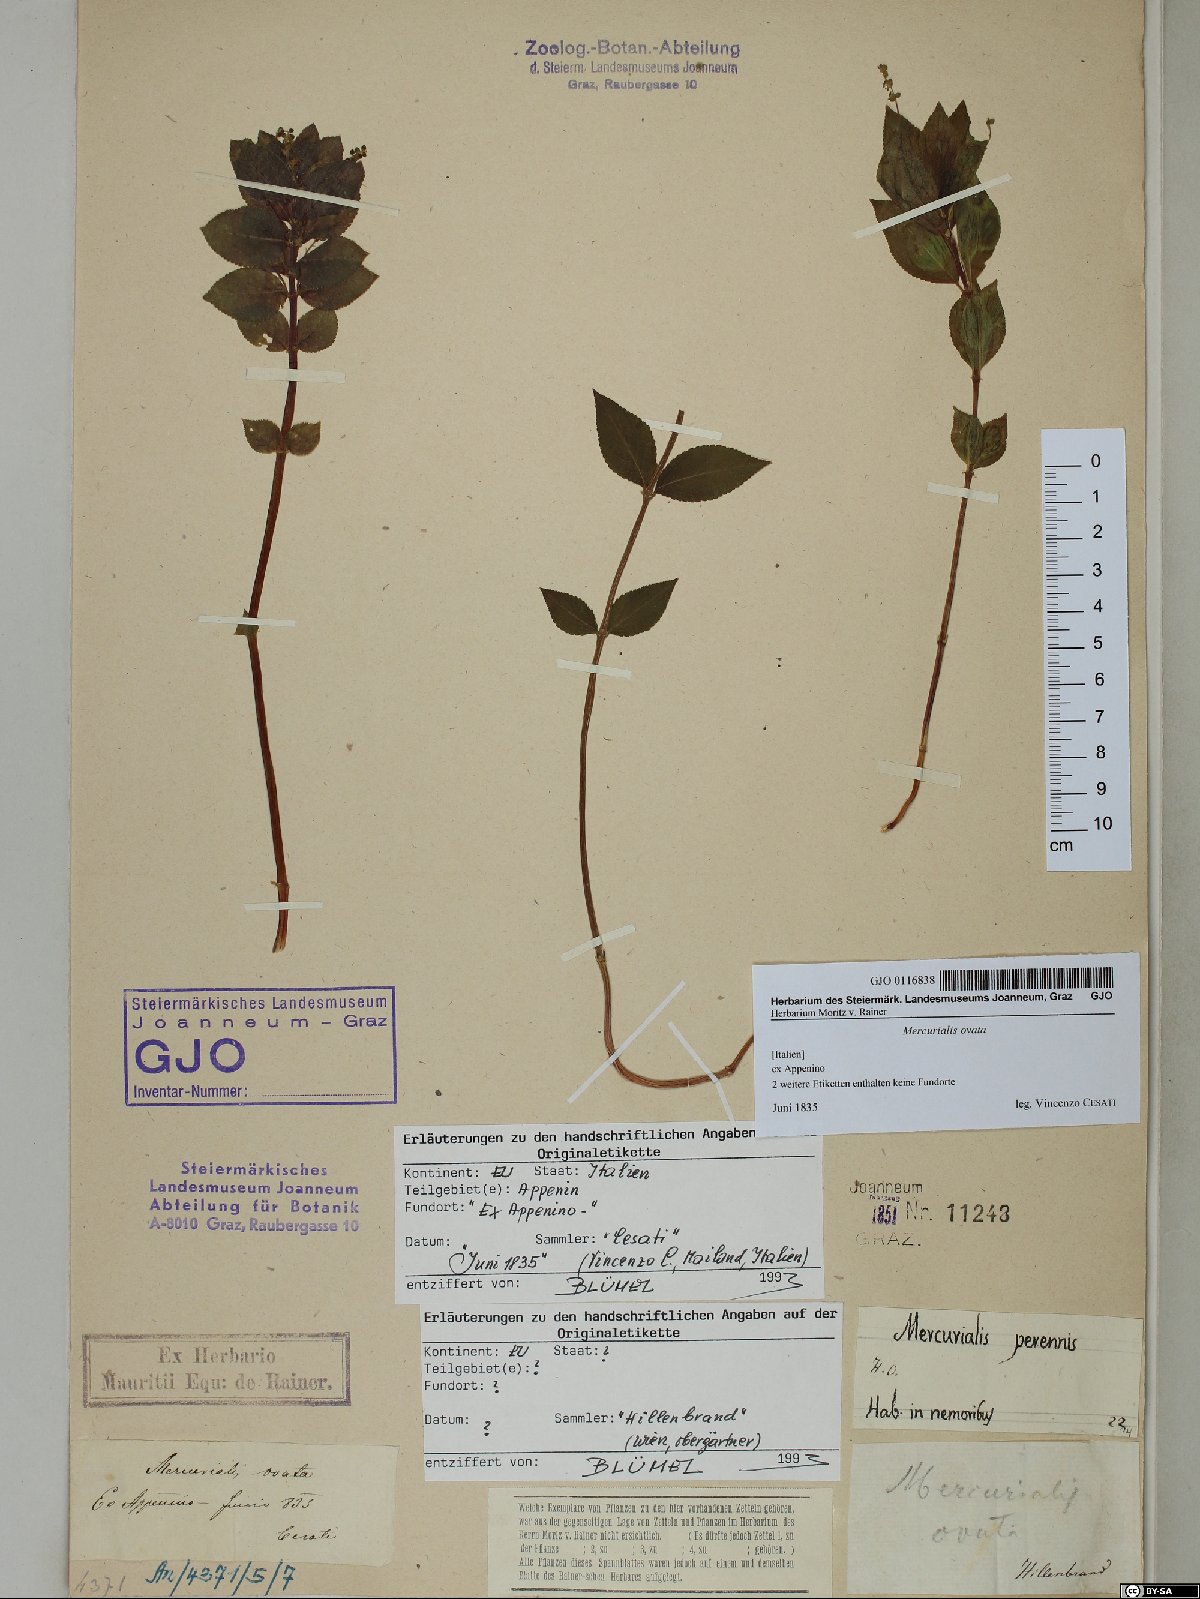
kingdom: Plantae
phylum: Tracheophyta
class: Magnoliopsida
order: Malpighiales
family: Euphorbiaceae
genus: Mercurialis
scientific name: Mercurialis ovata
